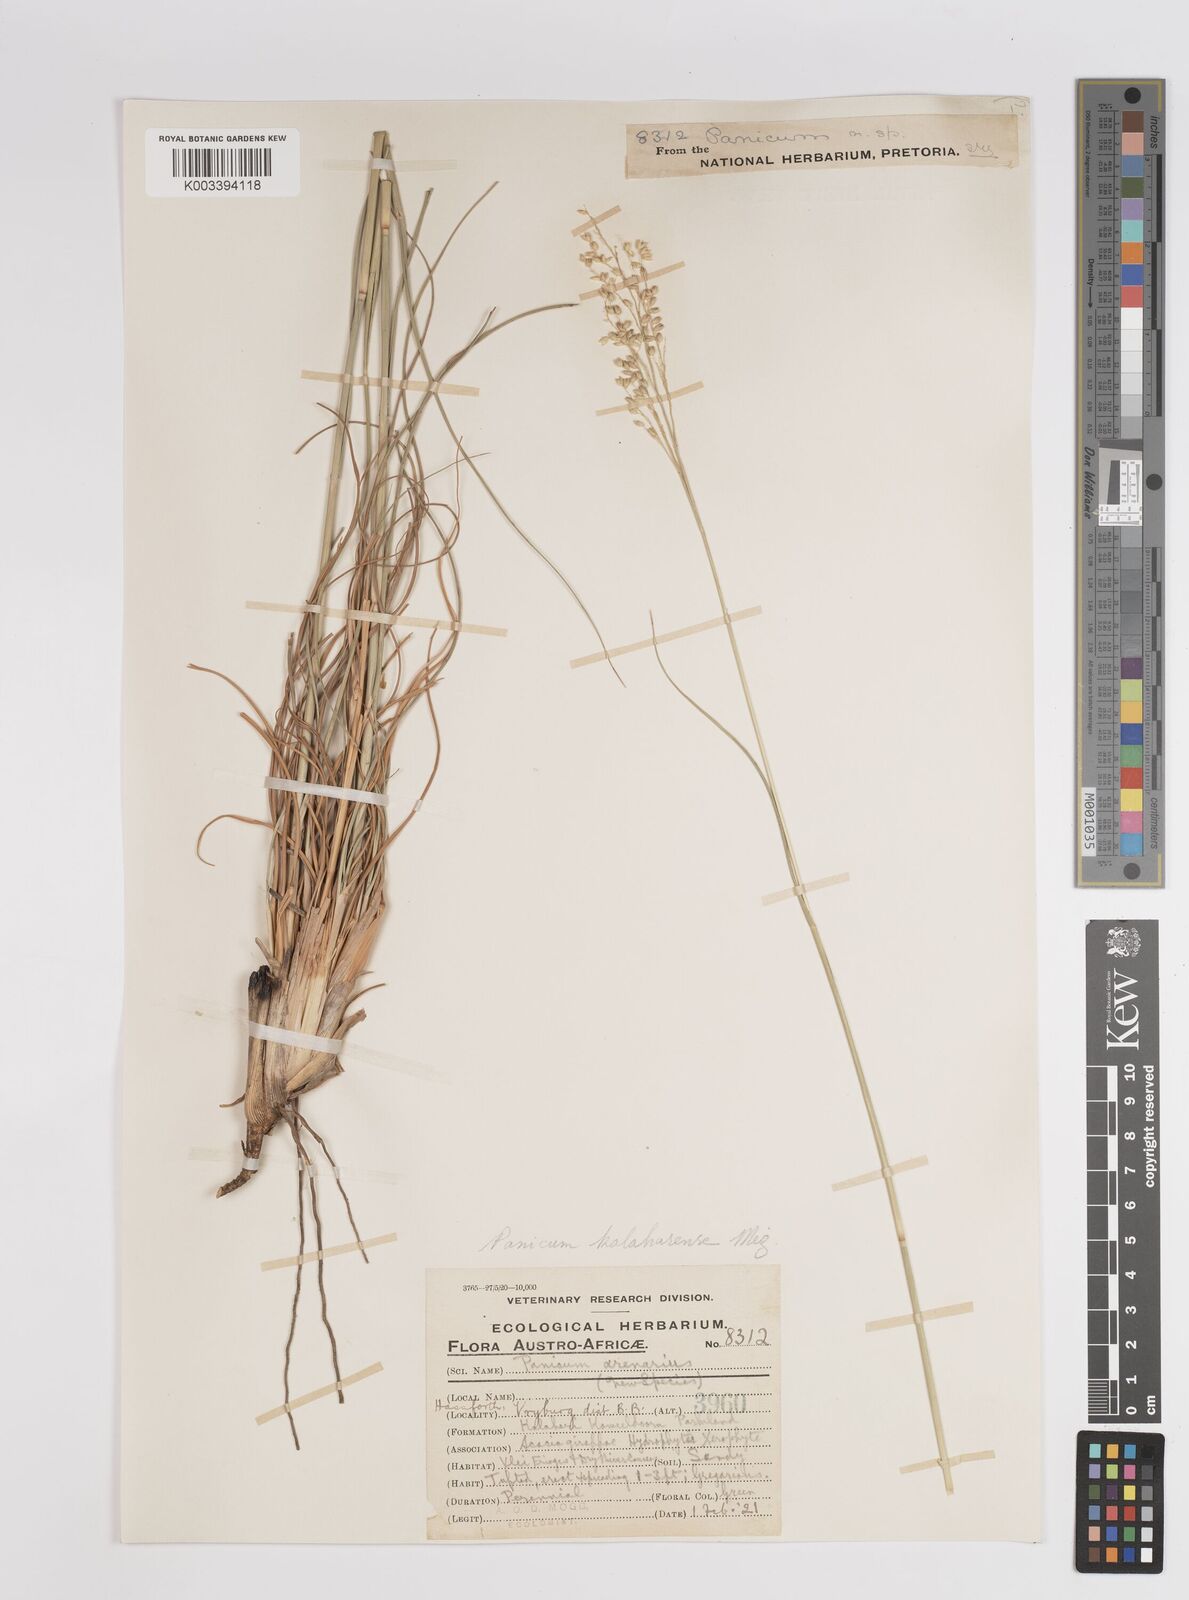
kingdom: Plantae
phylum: Tracheophyta
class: Liliopsida
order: Poales
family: Poaceae
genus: Panicum
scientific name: Panicum kalaharense
